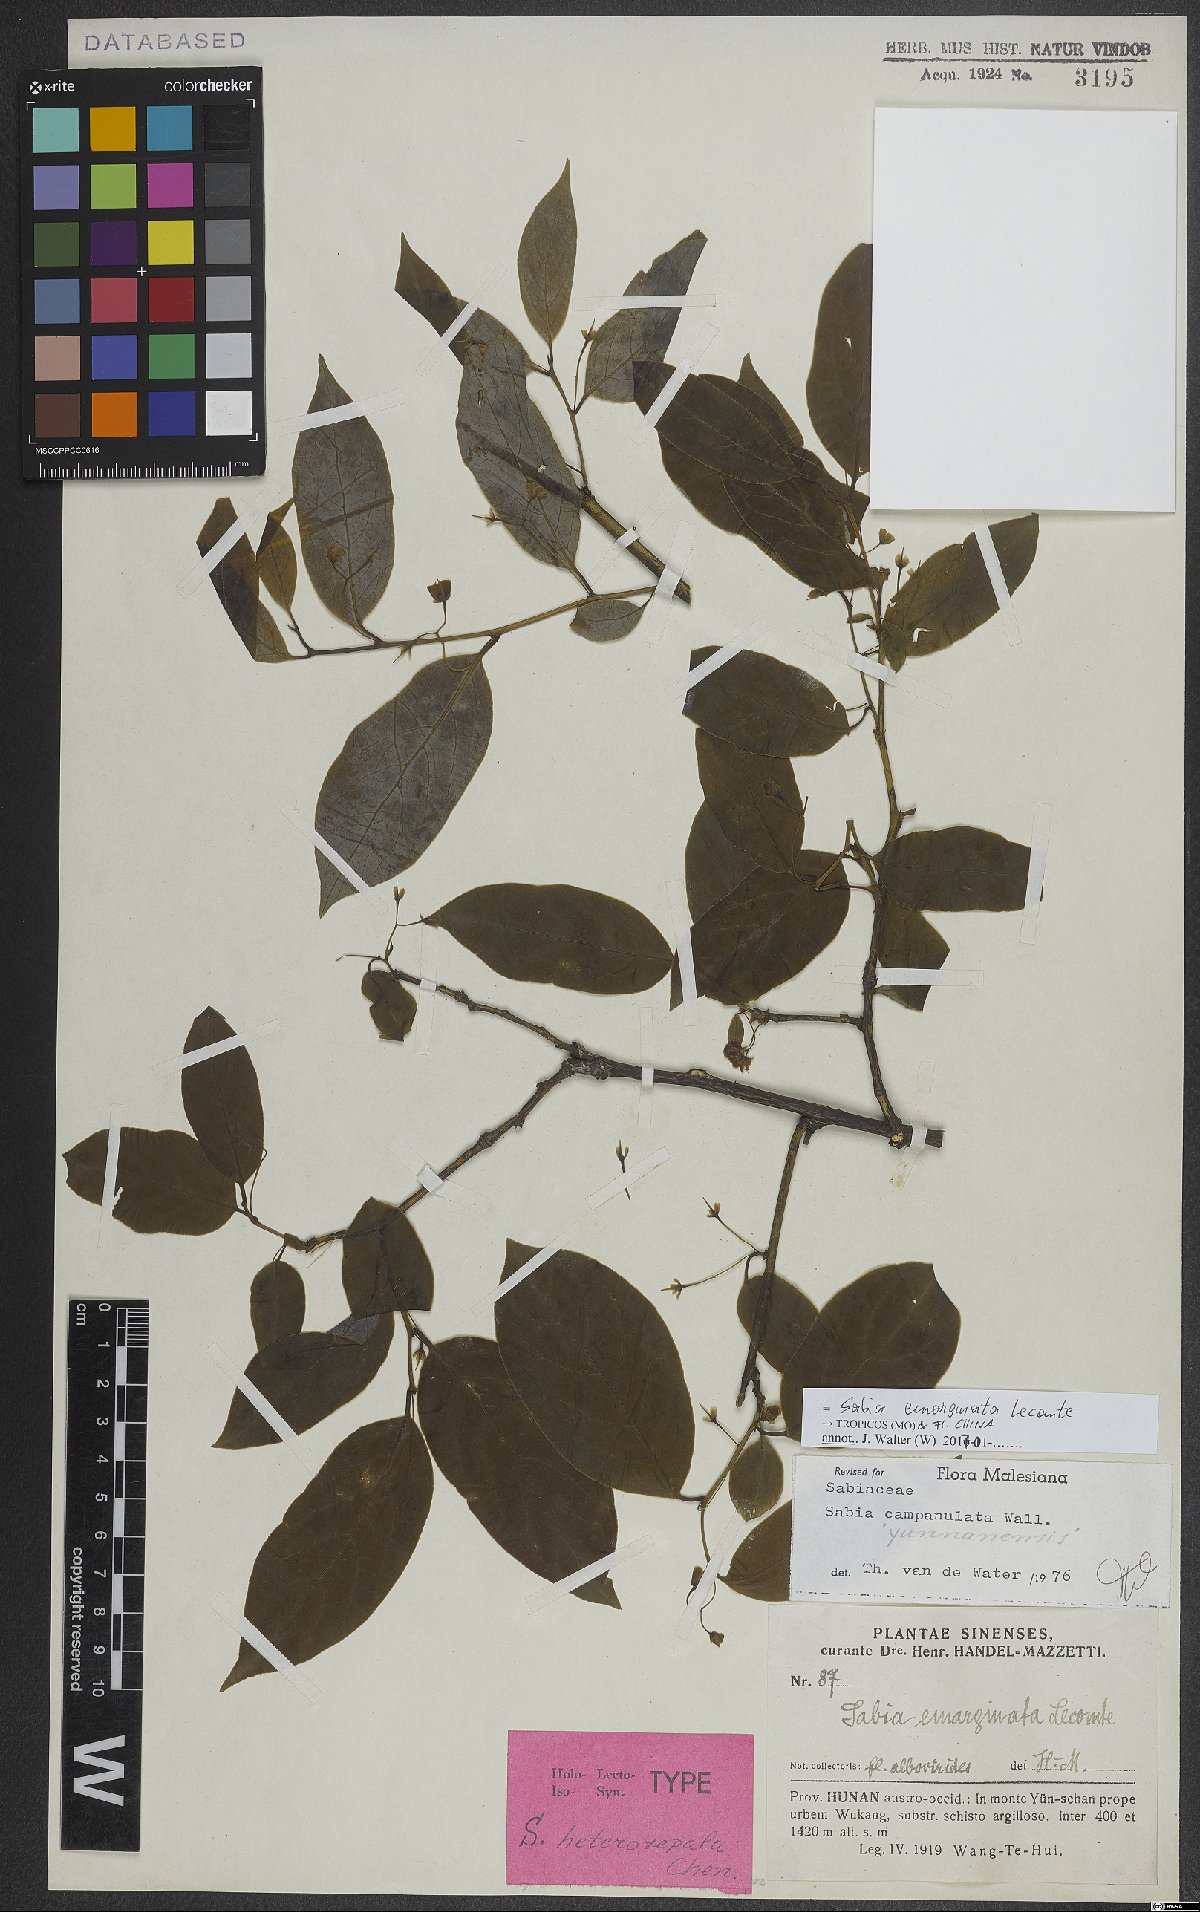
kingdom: Plantae
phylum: Tracheophyta
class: Magnoliopsida
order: Proteales
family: Sabiaceae
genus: Sabia
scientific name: Sabia emarginata
